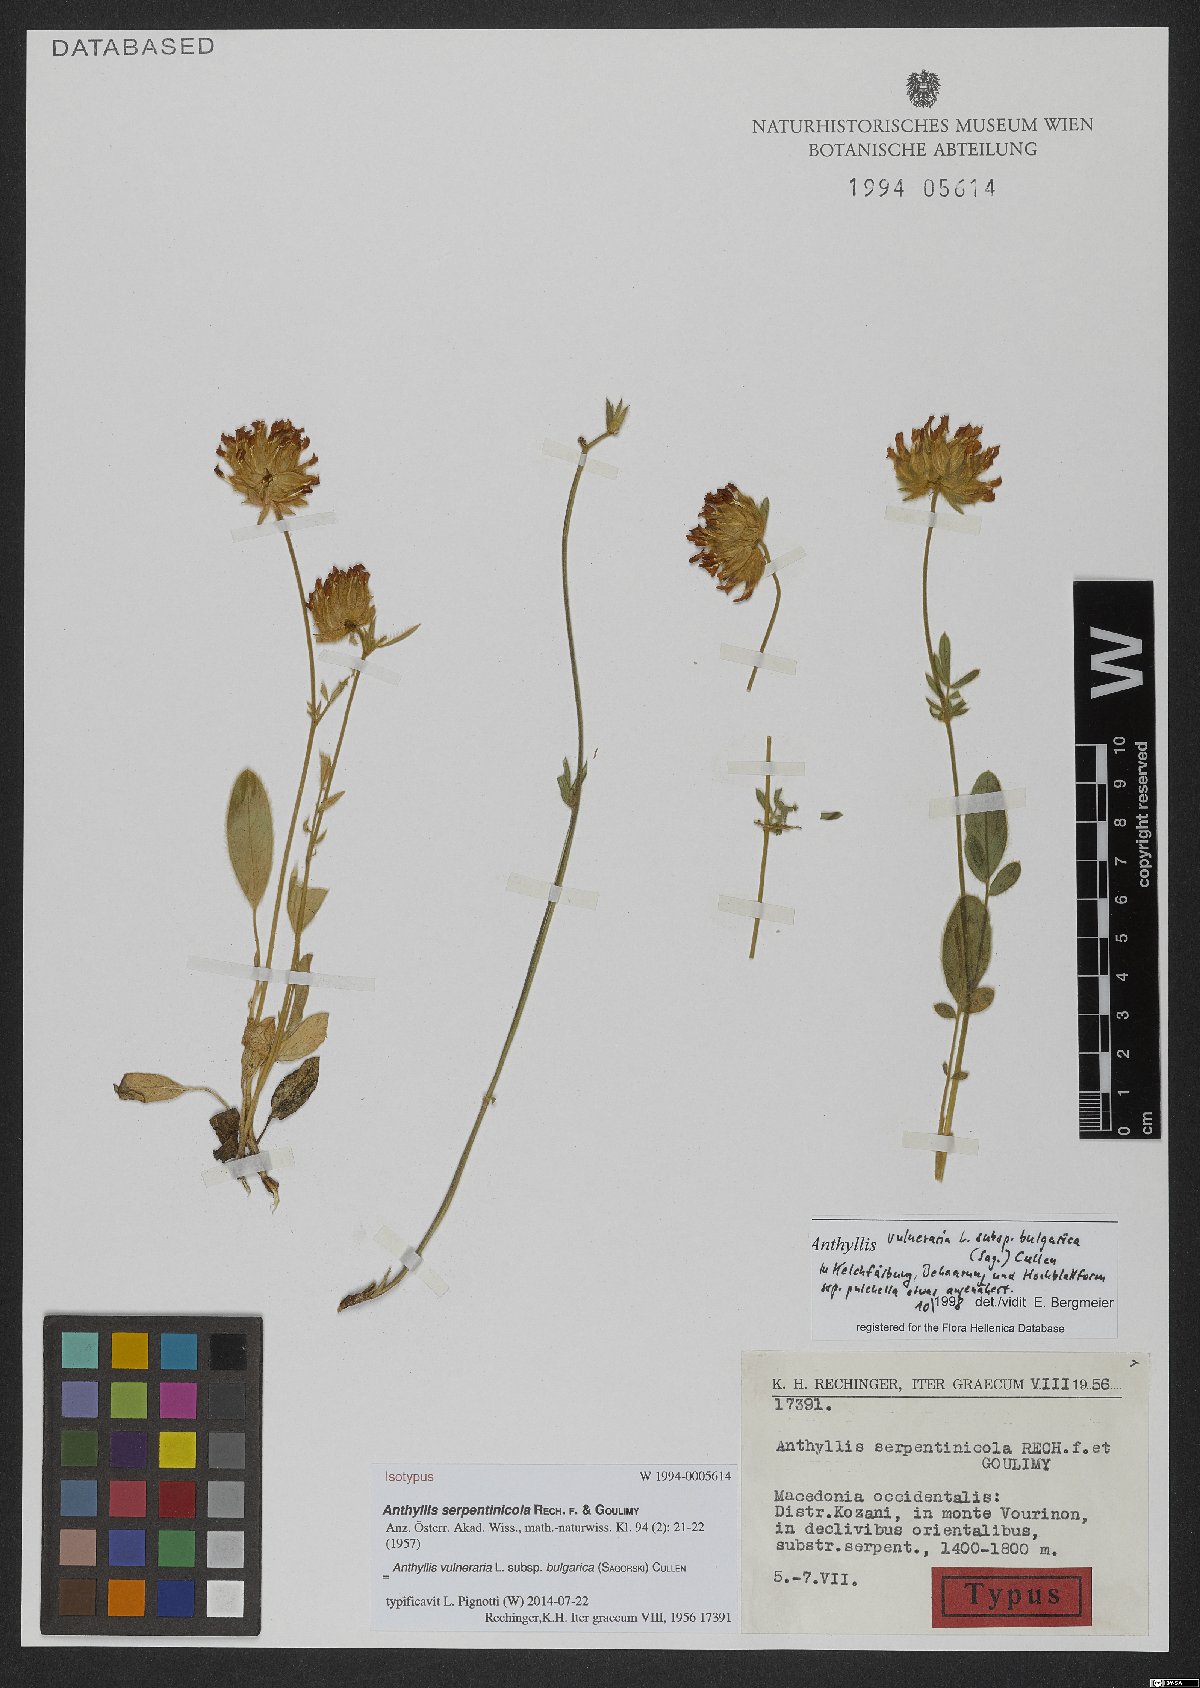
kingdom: Plantae
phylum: Tracheophyta
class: Magnoliopsida
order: Fabales
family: Fabaceae
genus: Anthyllis
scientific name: Anthyllis vulneraria
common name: Kidney vetch
